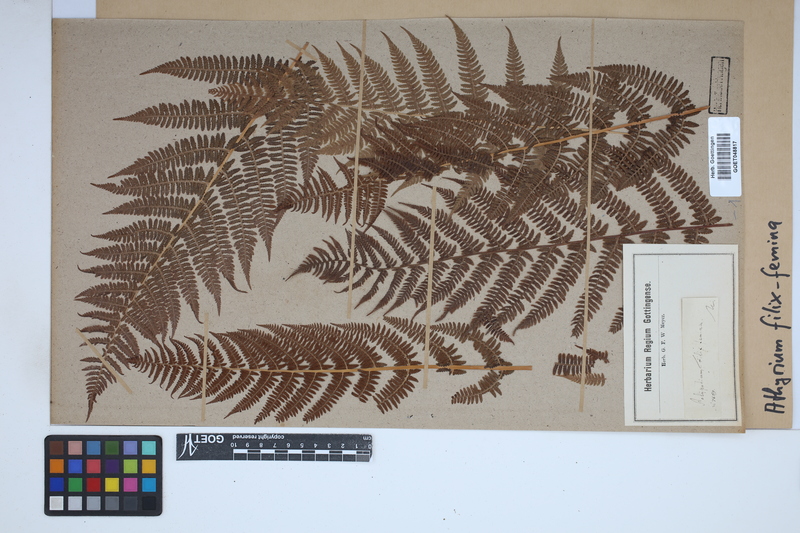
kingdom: Plantae
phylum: Tracheophyta
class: Polypodiopsida
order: Polypodiales
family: Athyriaceae
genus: Athyrium
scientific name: Athyrium filix-femina
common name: Lady fern
